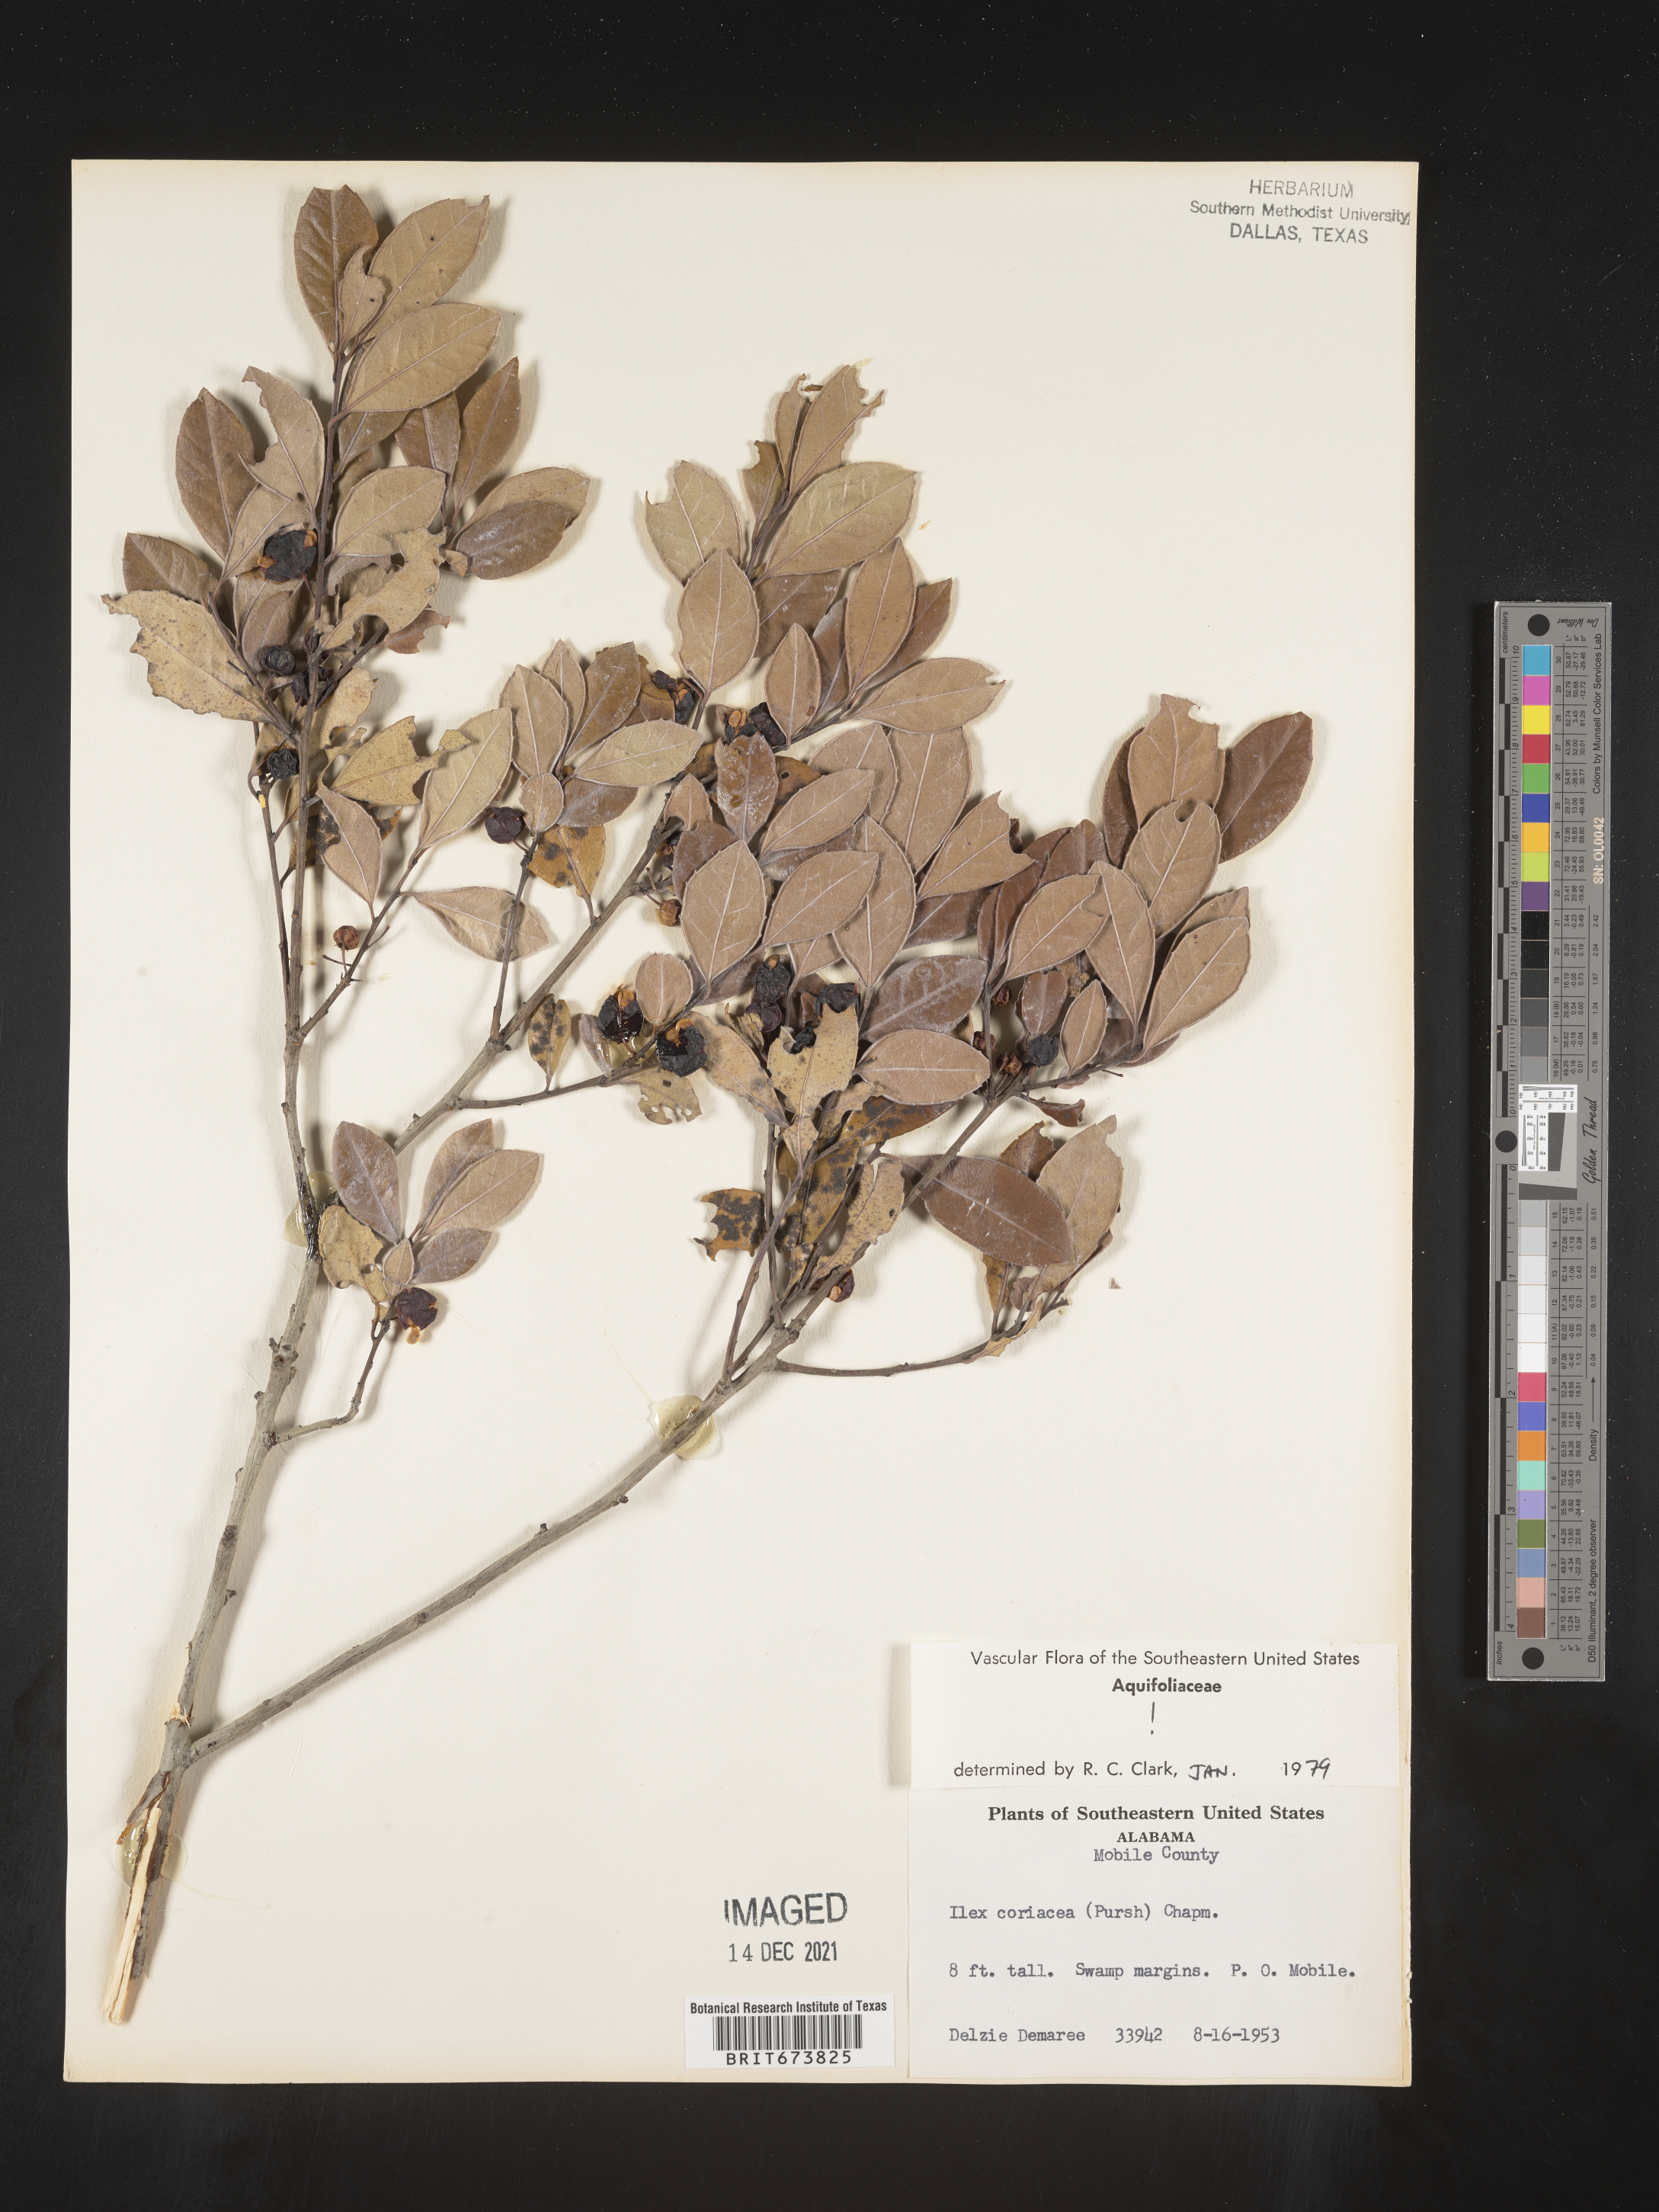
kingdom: Plantae
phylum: Tracheophyta
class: Magnoliopsida
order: Aquifoliales
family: Aquifoliaceae
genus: Ilex
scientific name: Ilex coriacea
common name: Sweet gallberry
